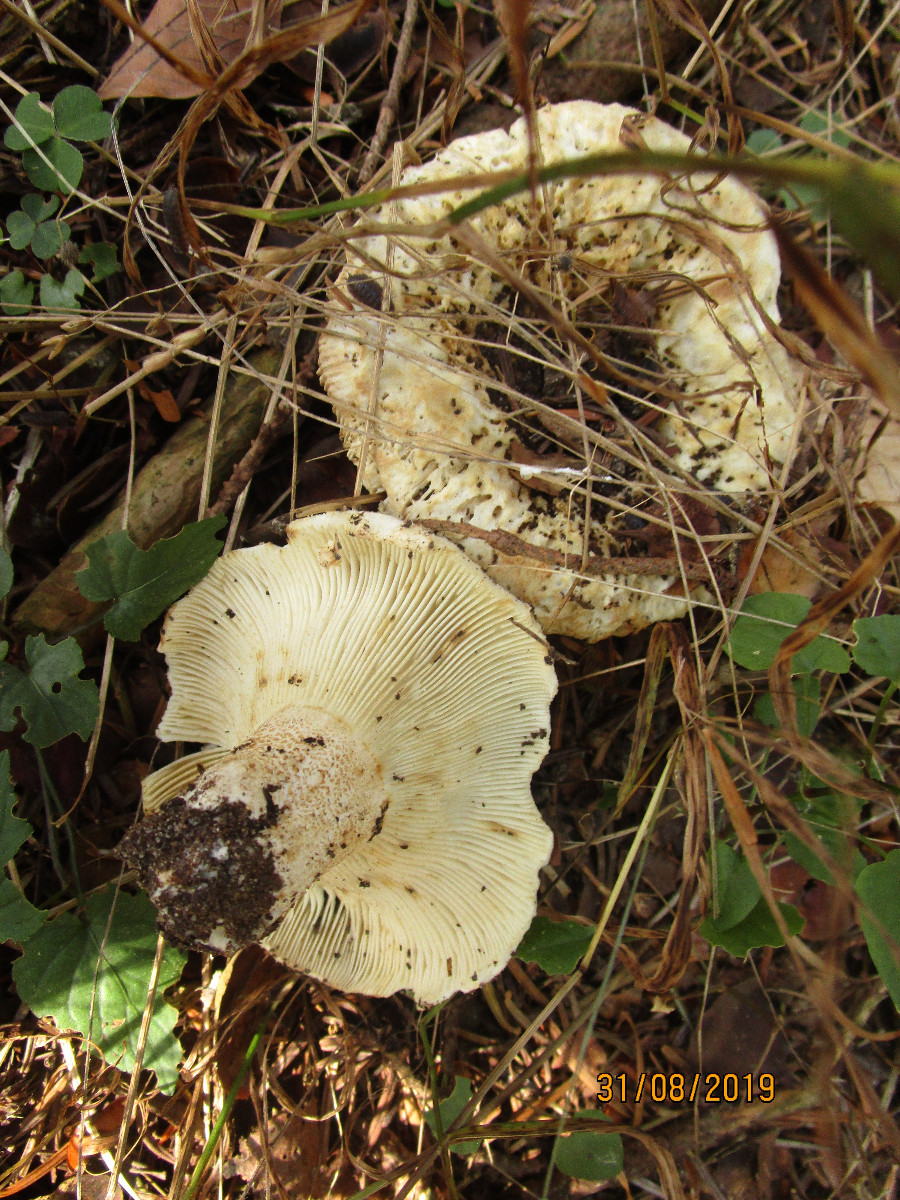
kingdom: Fungi
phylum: Basidiomycota
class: Agaricomycetes
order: Russulales
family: Russulaceae
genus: Russula
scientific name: Russula densifolia
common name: tætbladet skørhat
